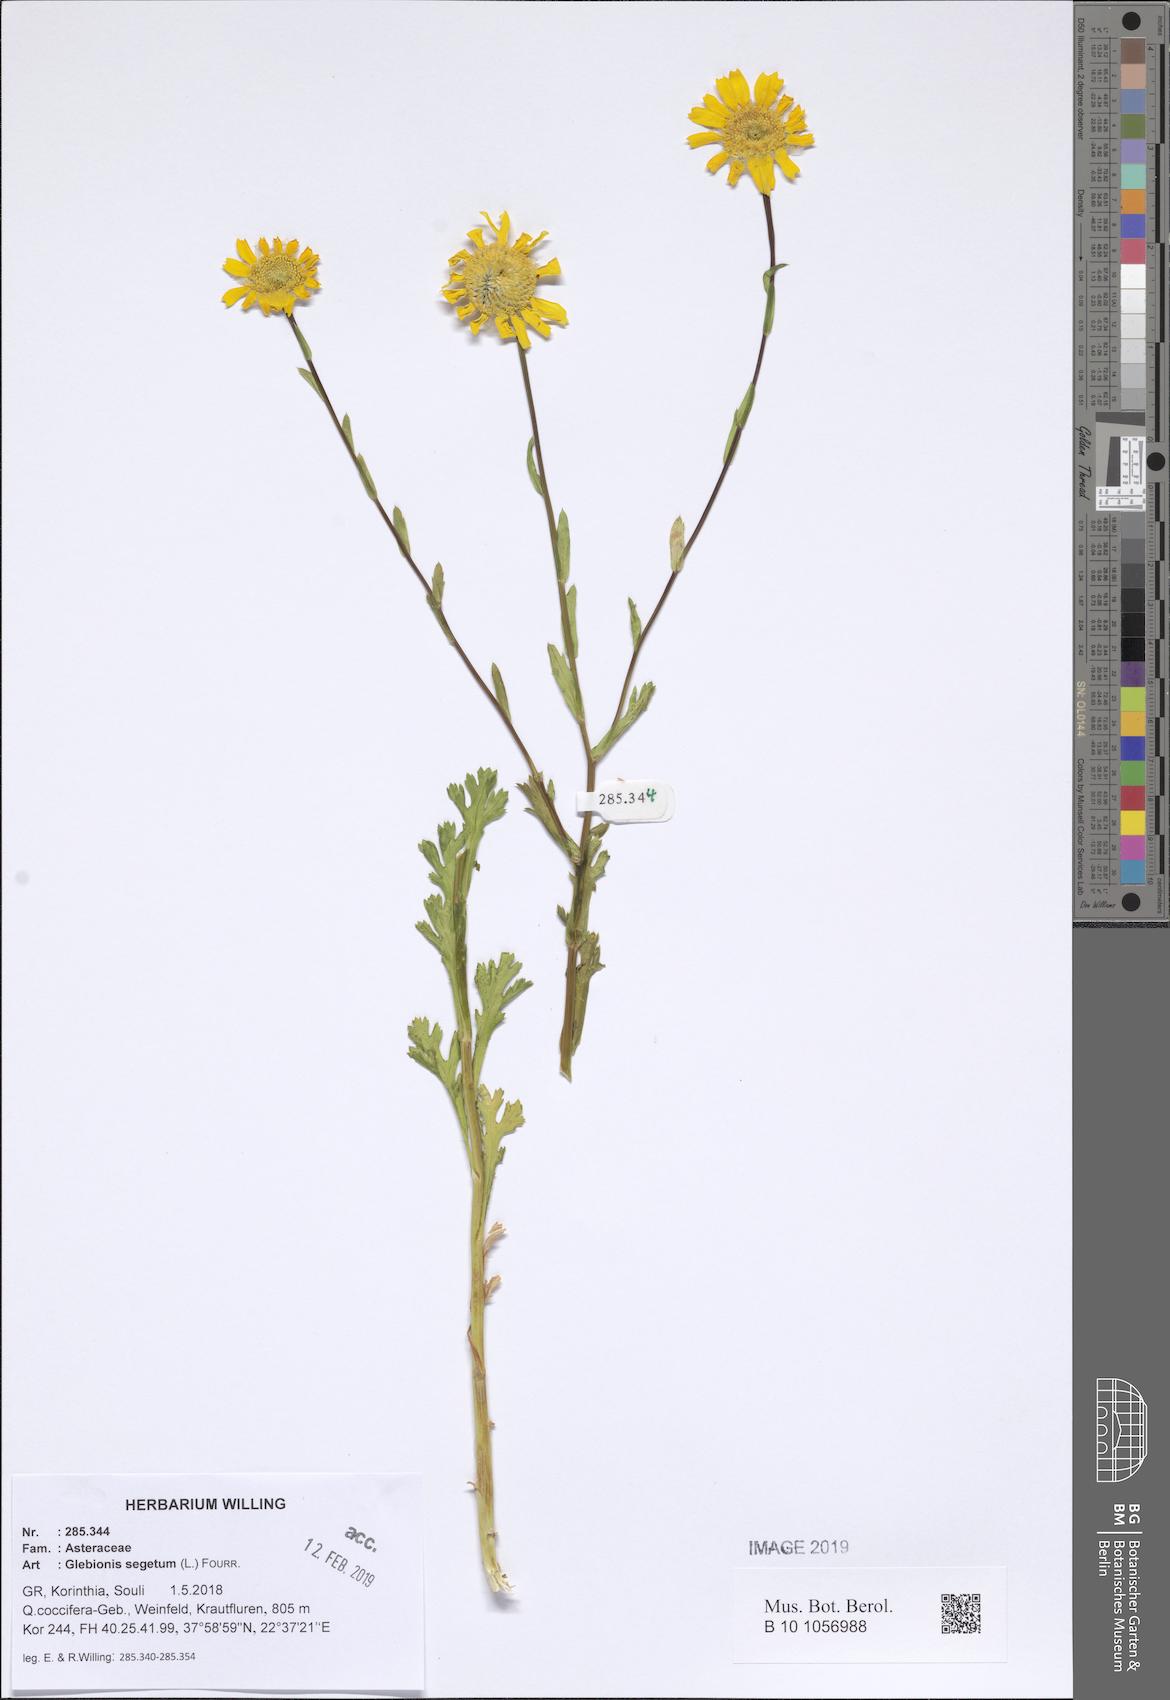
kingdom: Plantae
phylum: Tracheophyta
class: Magnoliopsida
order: Asterales
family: Asteraceae
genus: Glebionis
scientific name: Glebionis segetum
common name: Corndaisy
